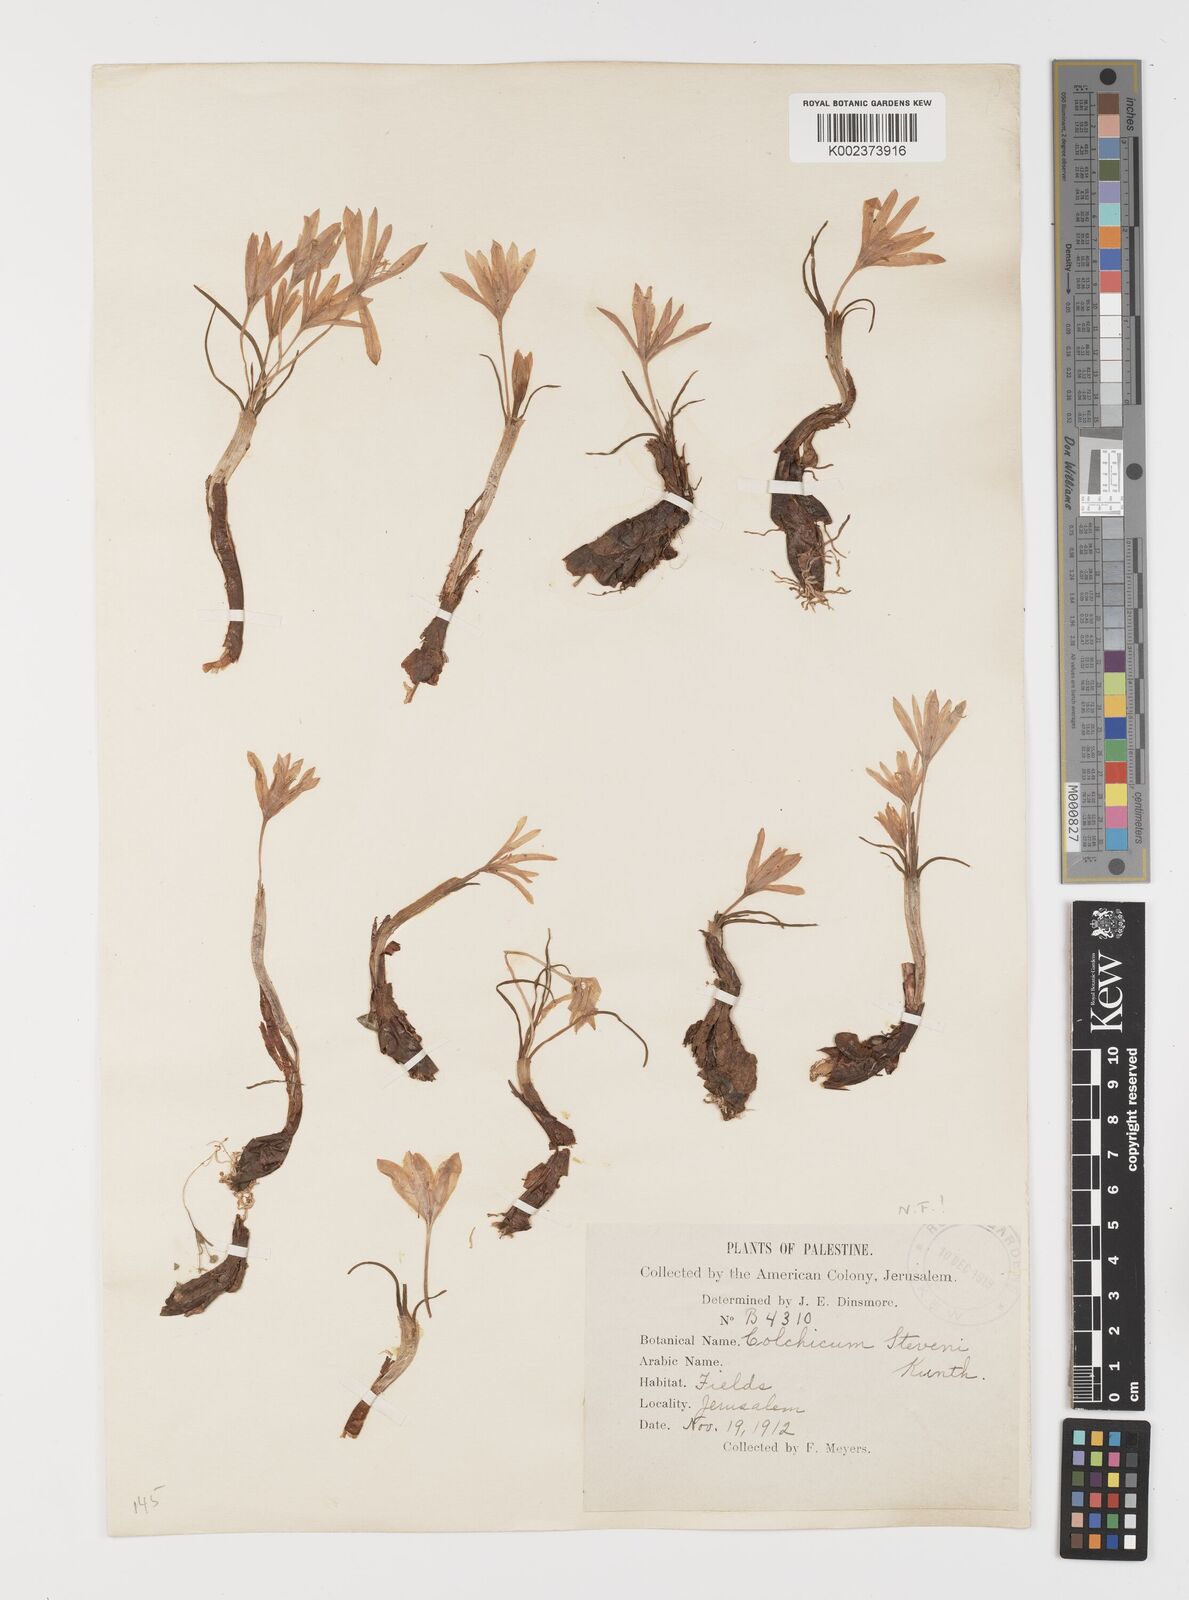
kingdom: Plantae
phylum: Tracheophyta
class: Liliopsida
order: Liliales
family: Colchicaceae
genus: Colchicum
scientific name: Colchicum stevenii
